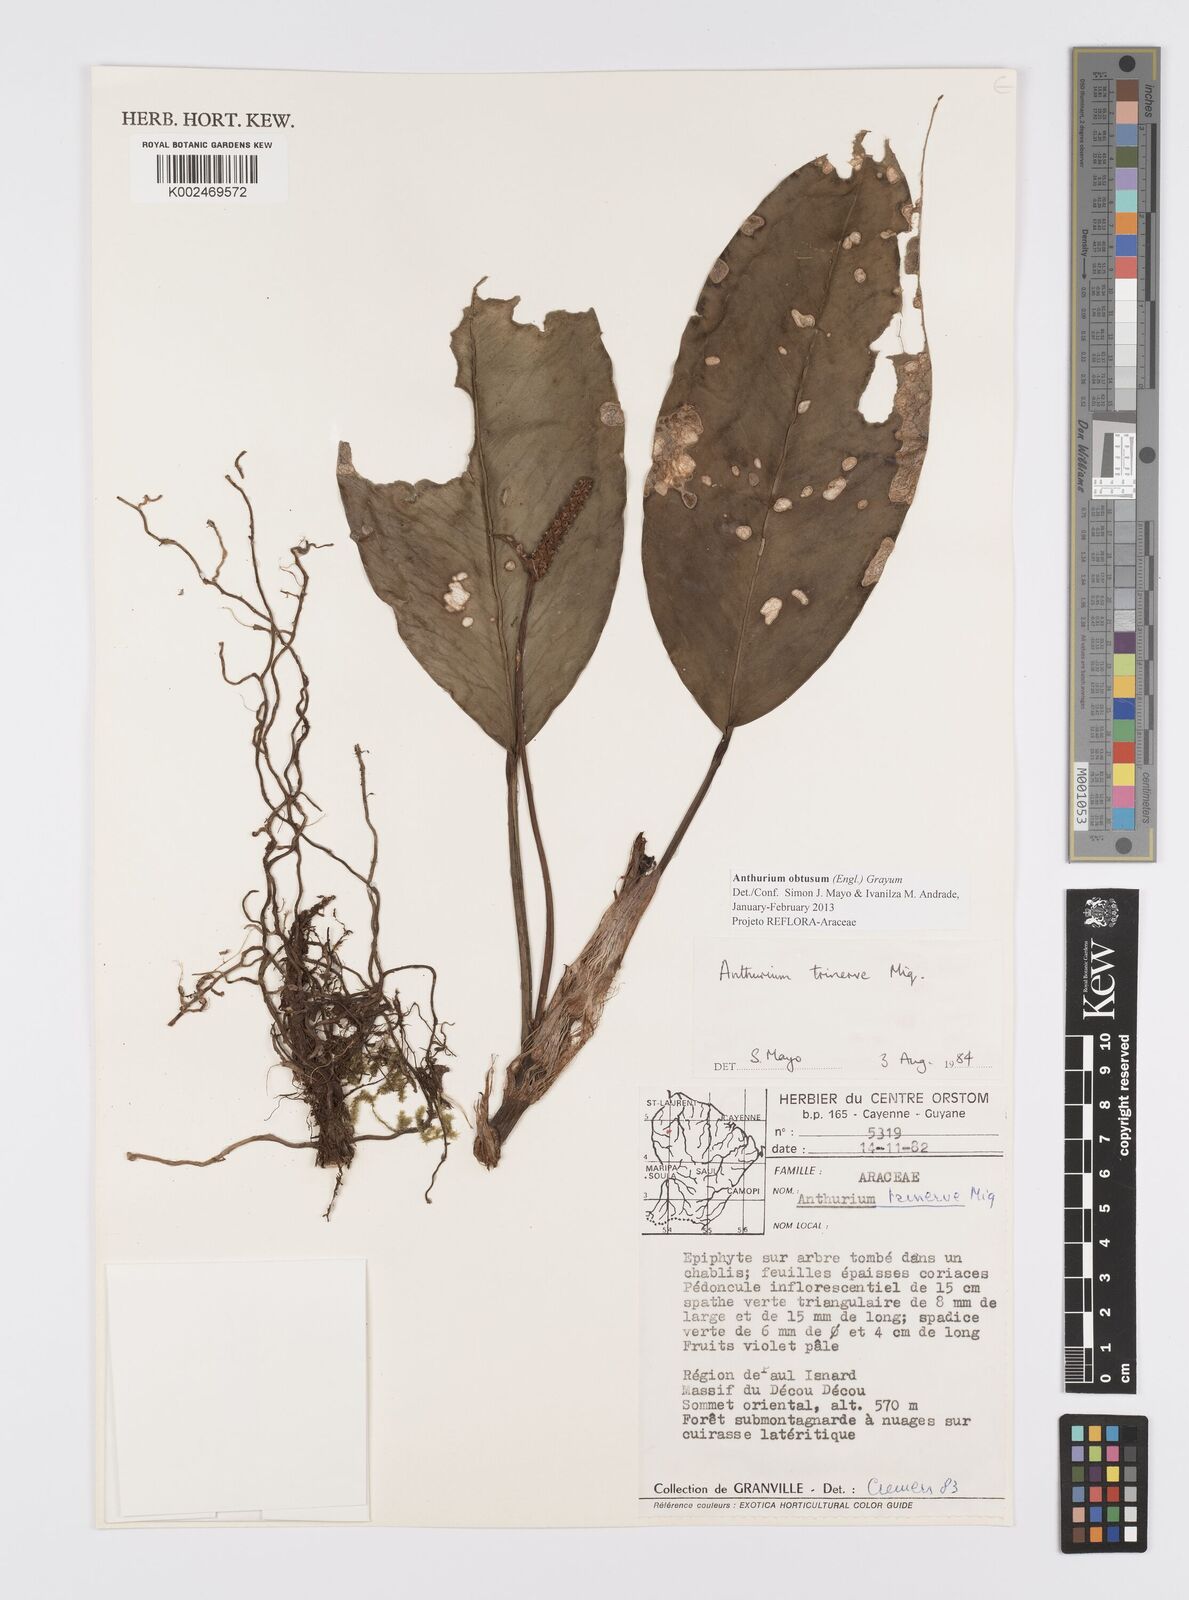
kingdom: Plantae
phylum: Tracheophyta
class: Liliopsida
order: Alismatales
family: Araceae
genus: Anthurium
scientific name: Anthurium obtusum
